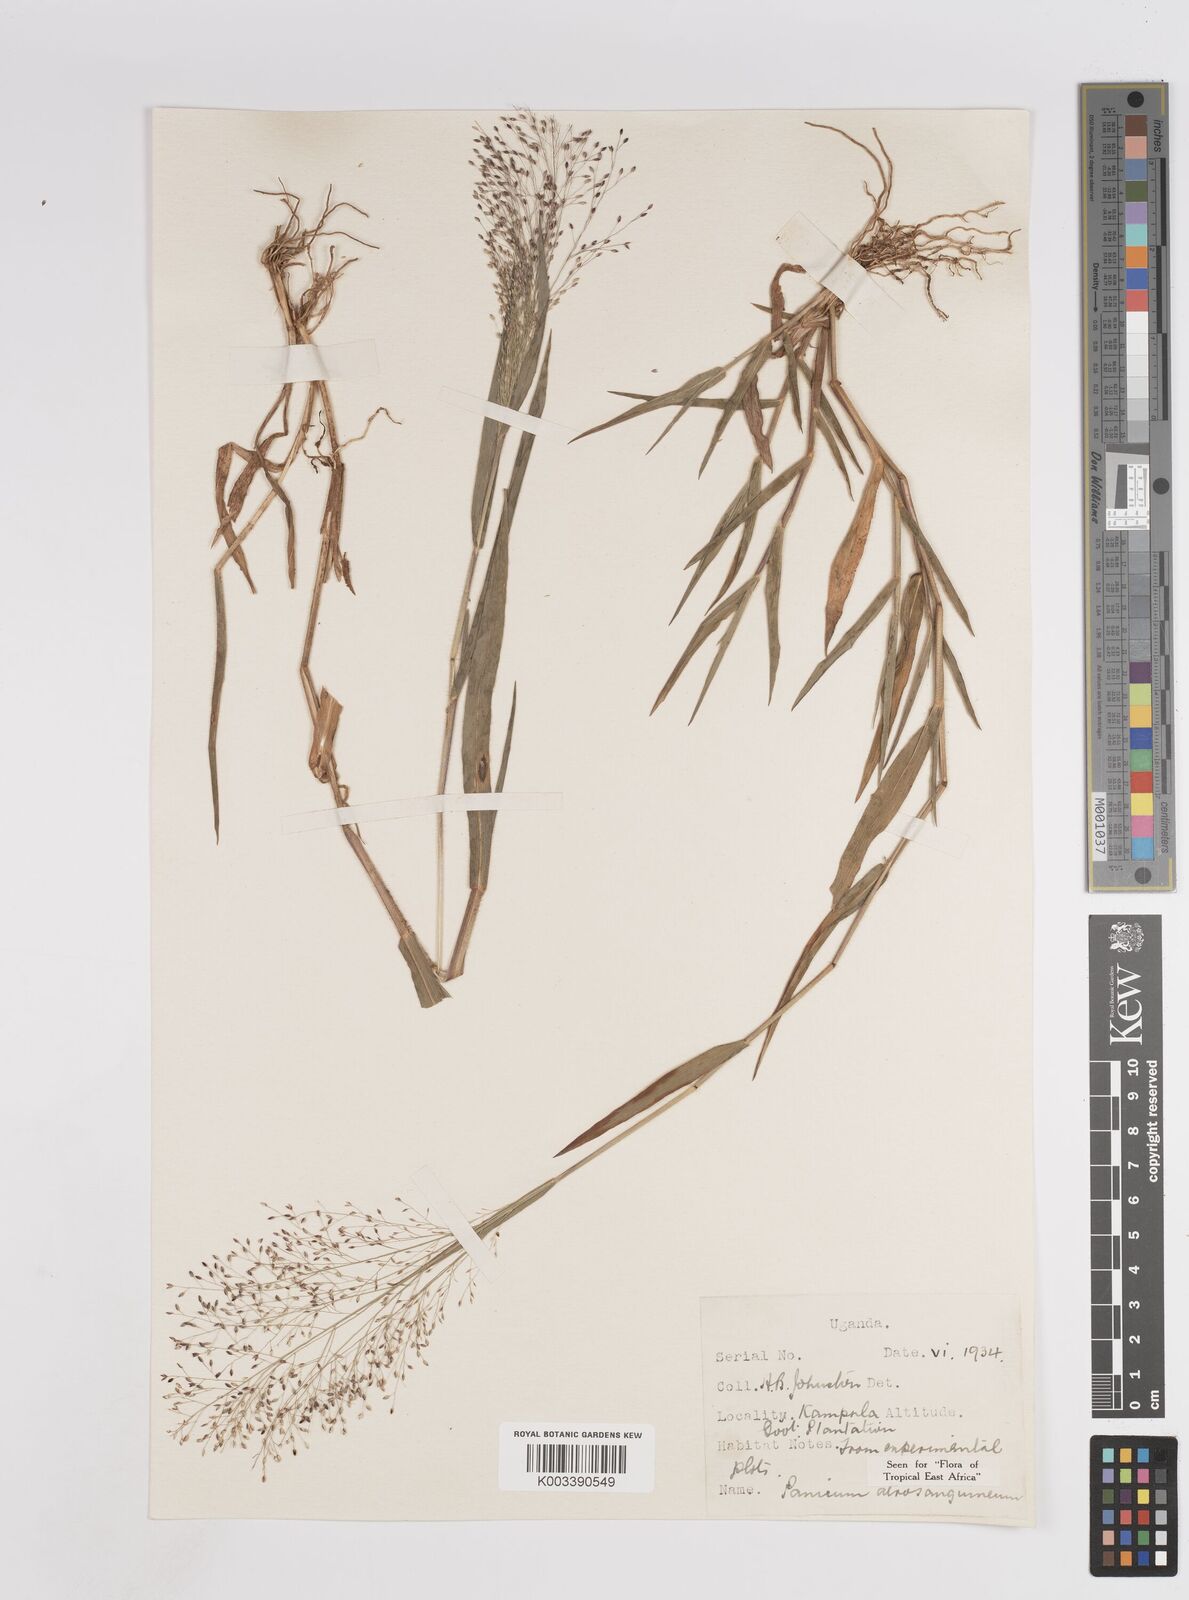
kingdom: Plantae
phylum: Tracheophyta
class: Liliopsida
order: Poales
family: Poaceae
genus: Panicum
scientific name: Panicum atrosanguineum
